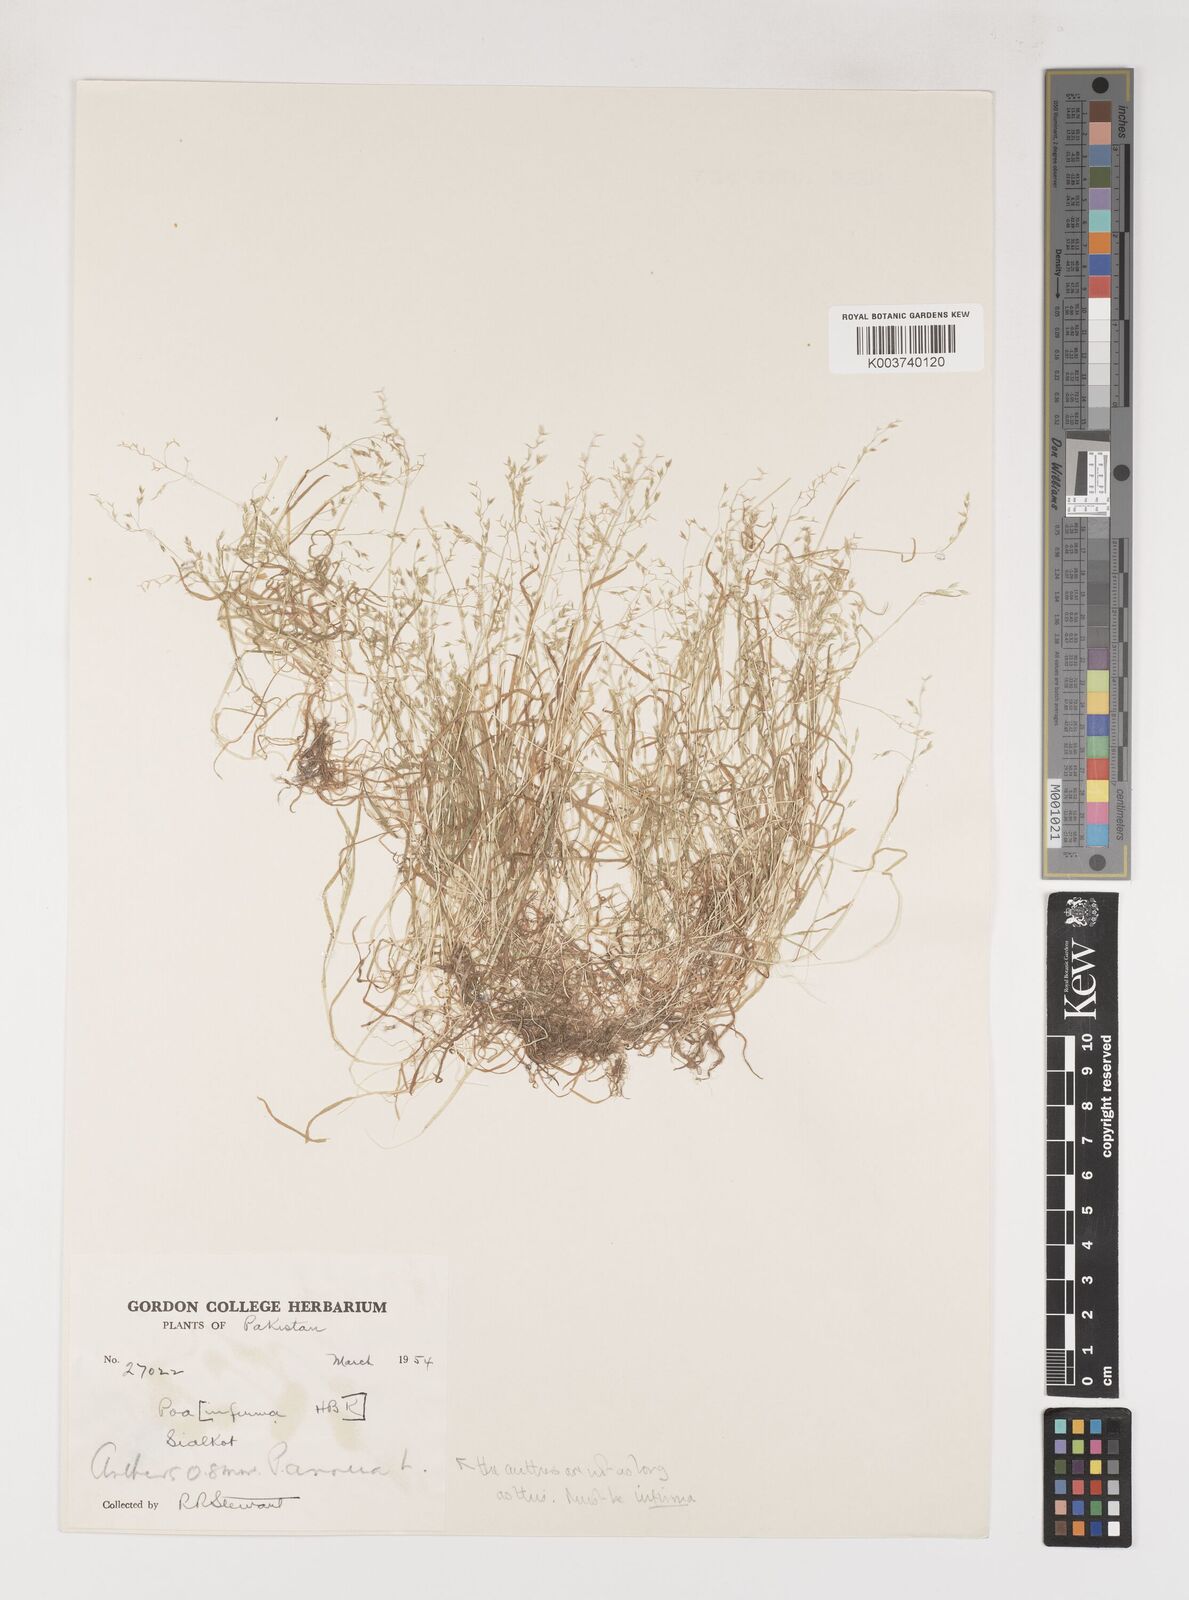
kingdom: Plantae
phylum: Tracheophyta
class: Liliopsida
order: Poales
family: Poaceae
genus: Poa
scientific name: Poa infirma
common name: Weak bluegrass
